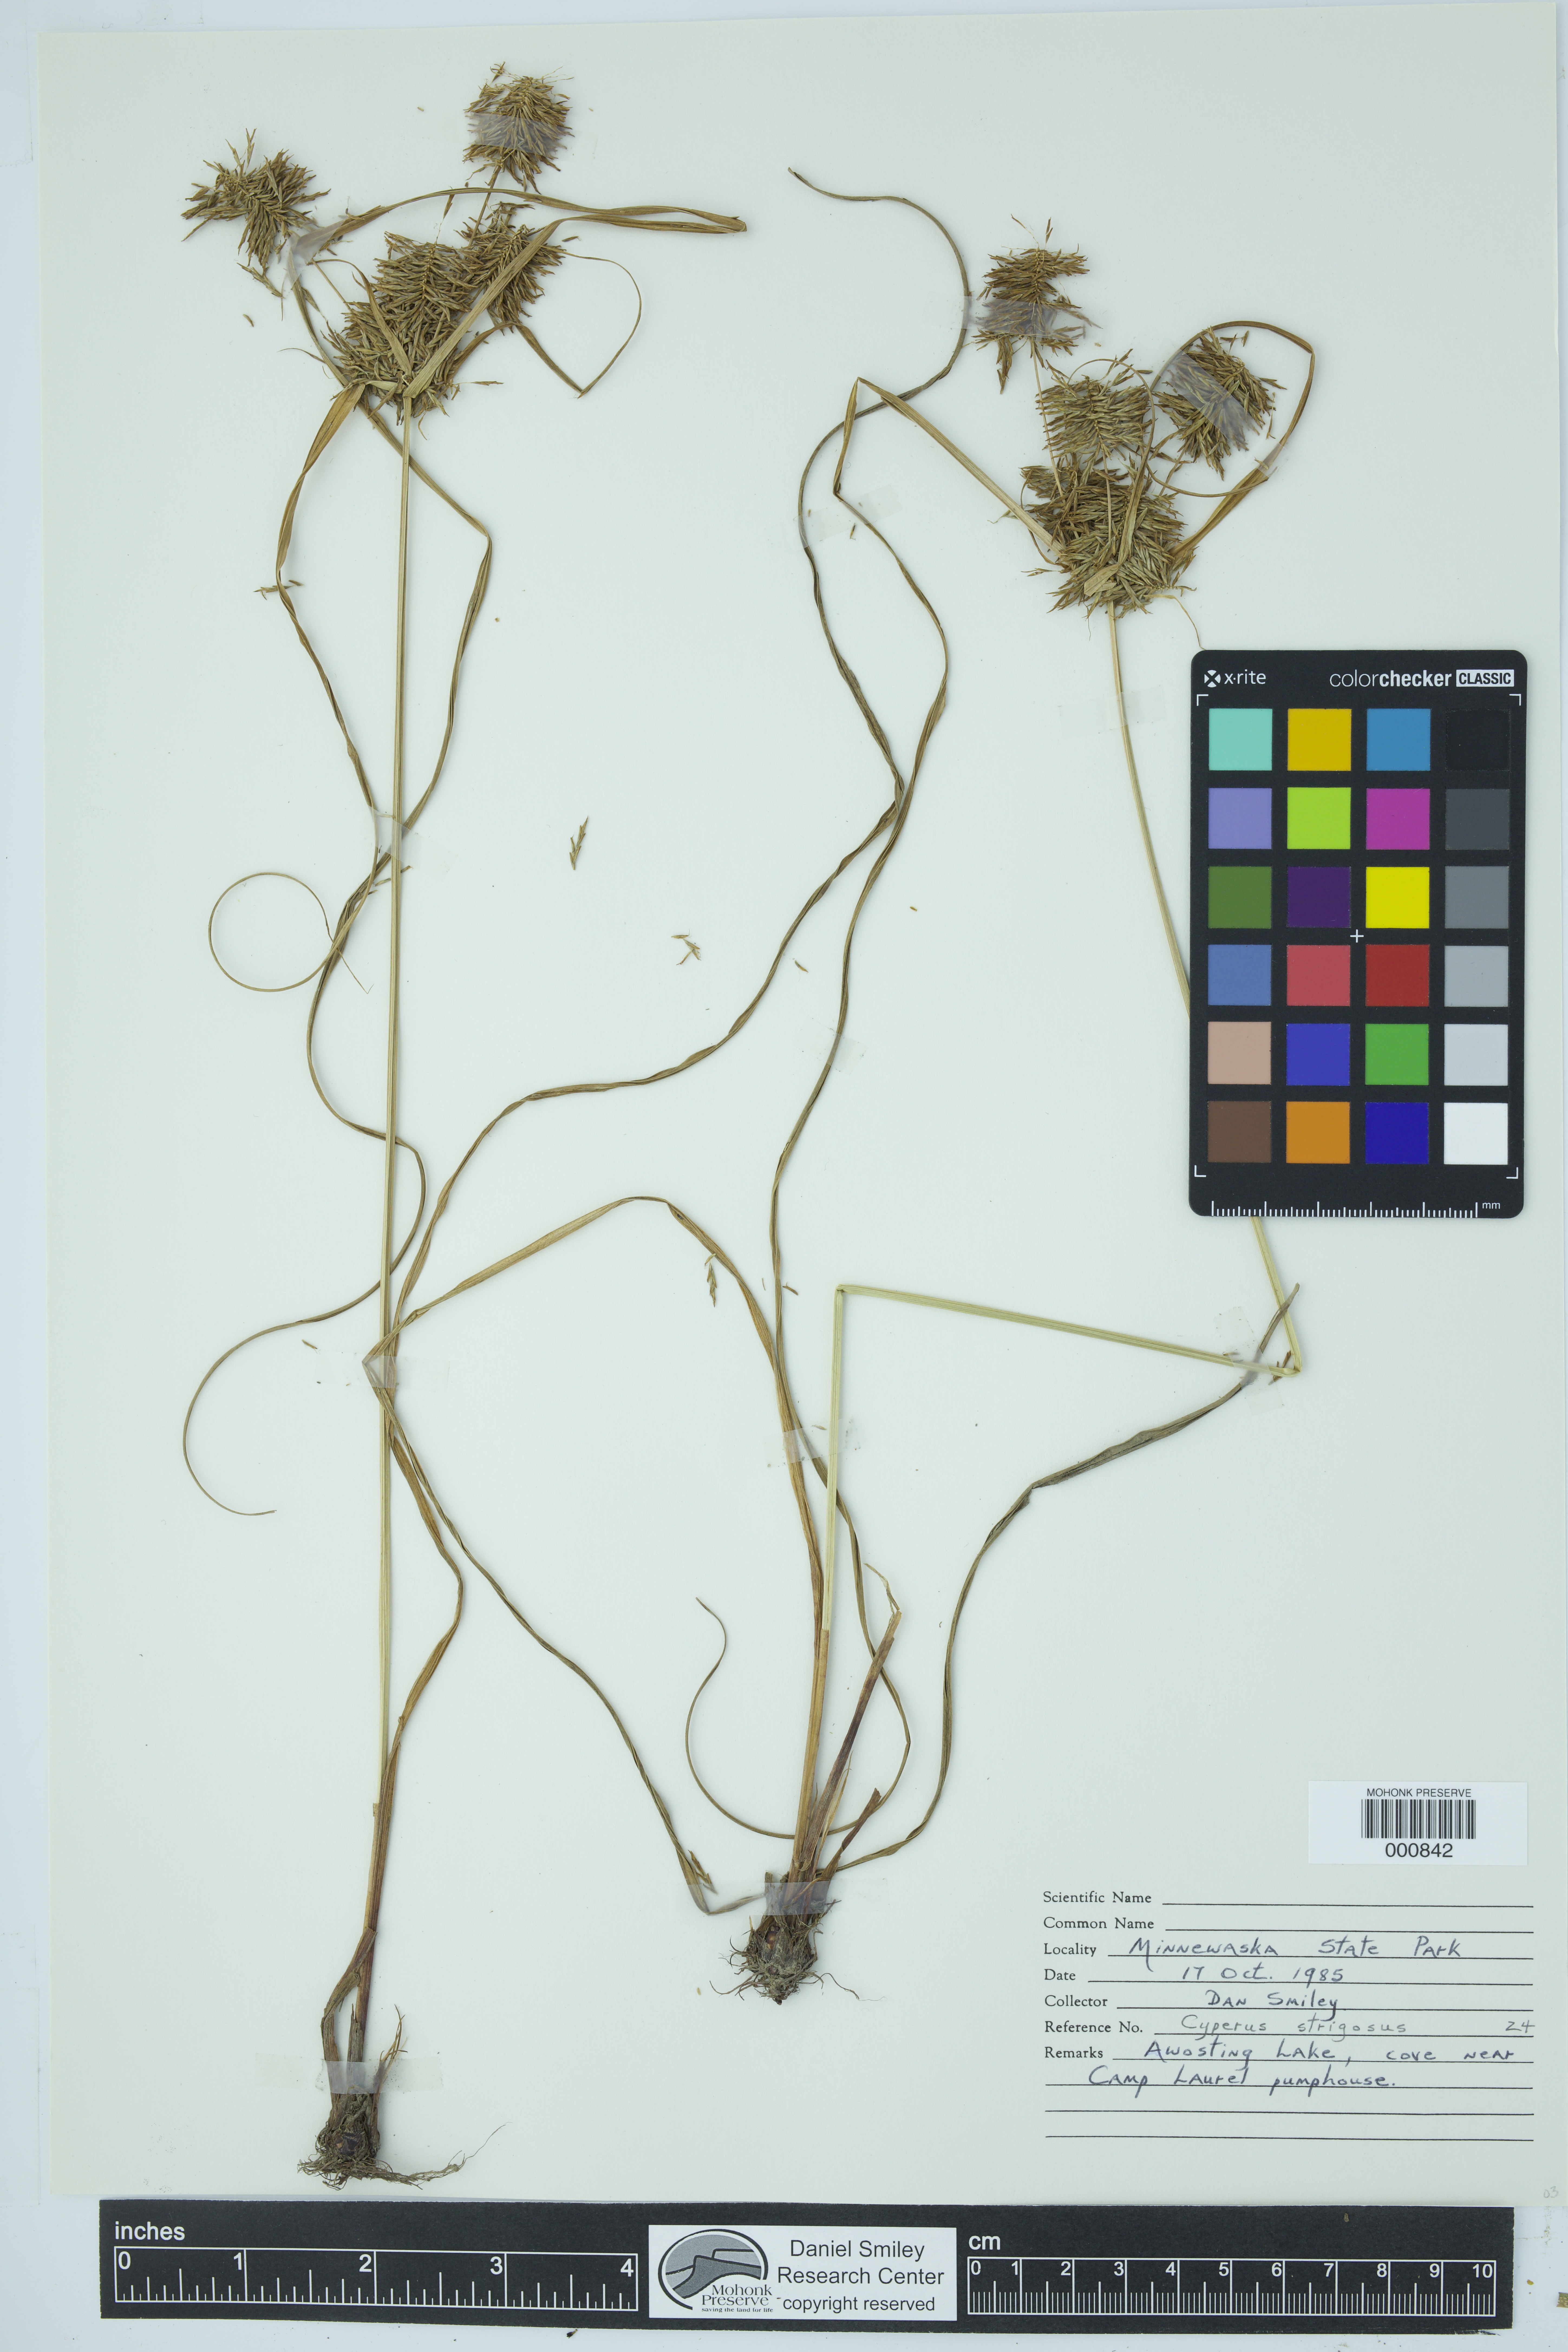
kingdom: Plantae
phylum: Tracheophyta
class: Liliopsida
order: Poales
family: Cyperaceae
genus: Cyperus
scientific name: Cyperus strigosus
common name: False nutsedge
